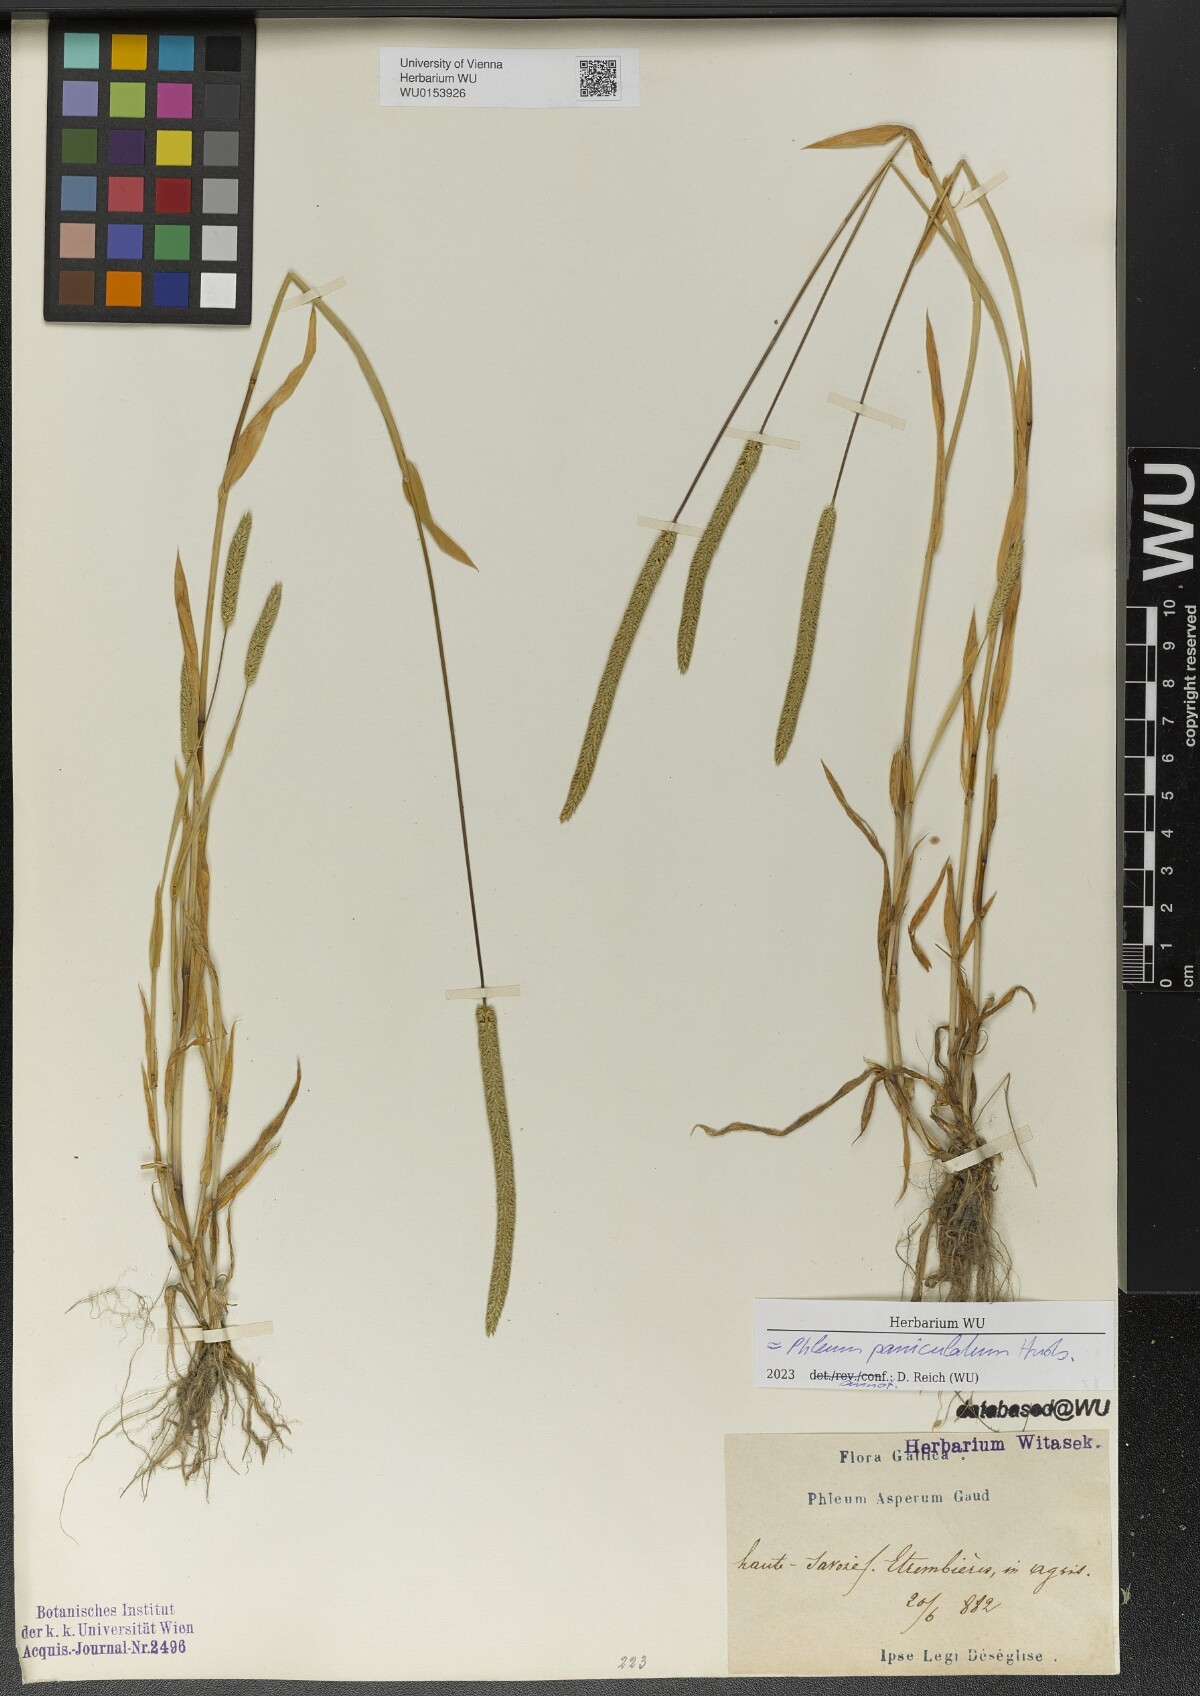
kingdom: Plantae
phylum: Tracheophyta
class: Liliopsida
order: Poales
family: Poaceae
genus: Phleum
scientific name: Phleum paniculatum
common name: British timothy
